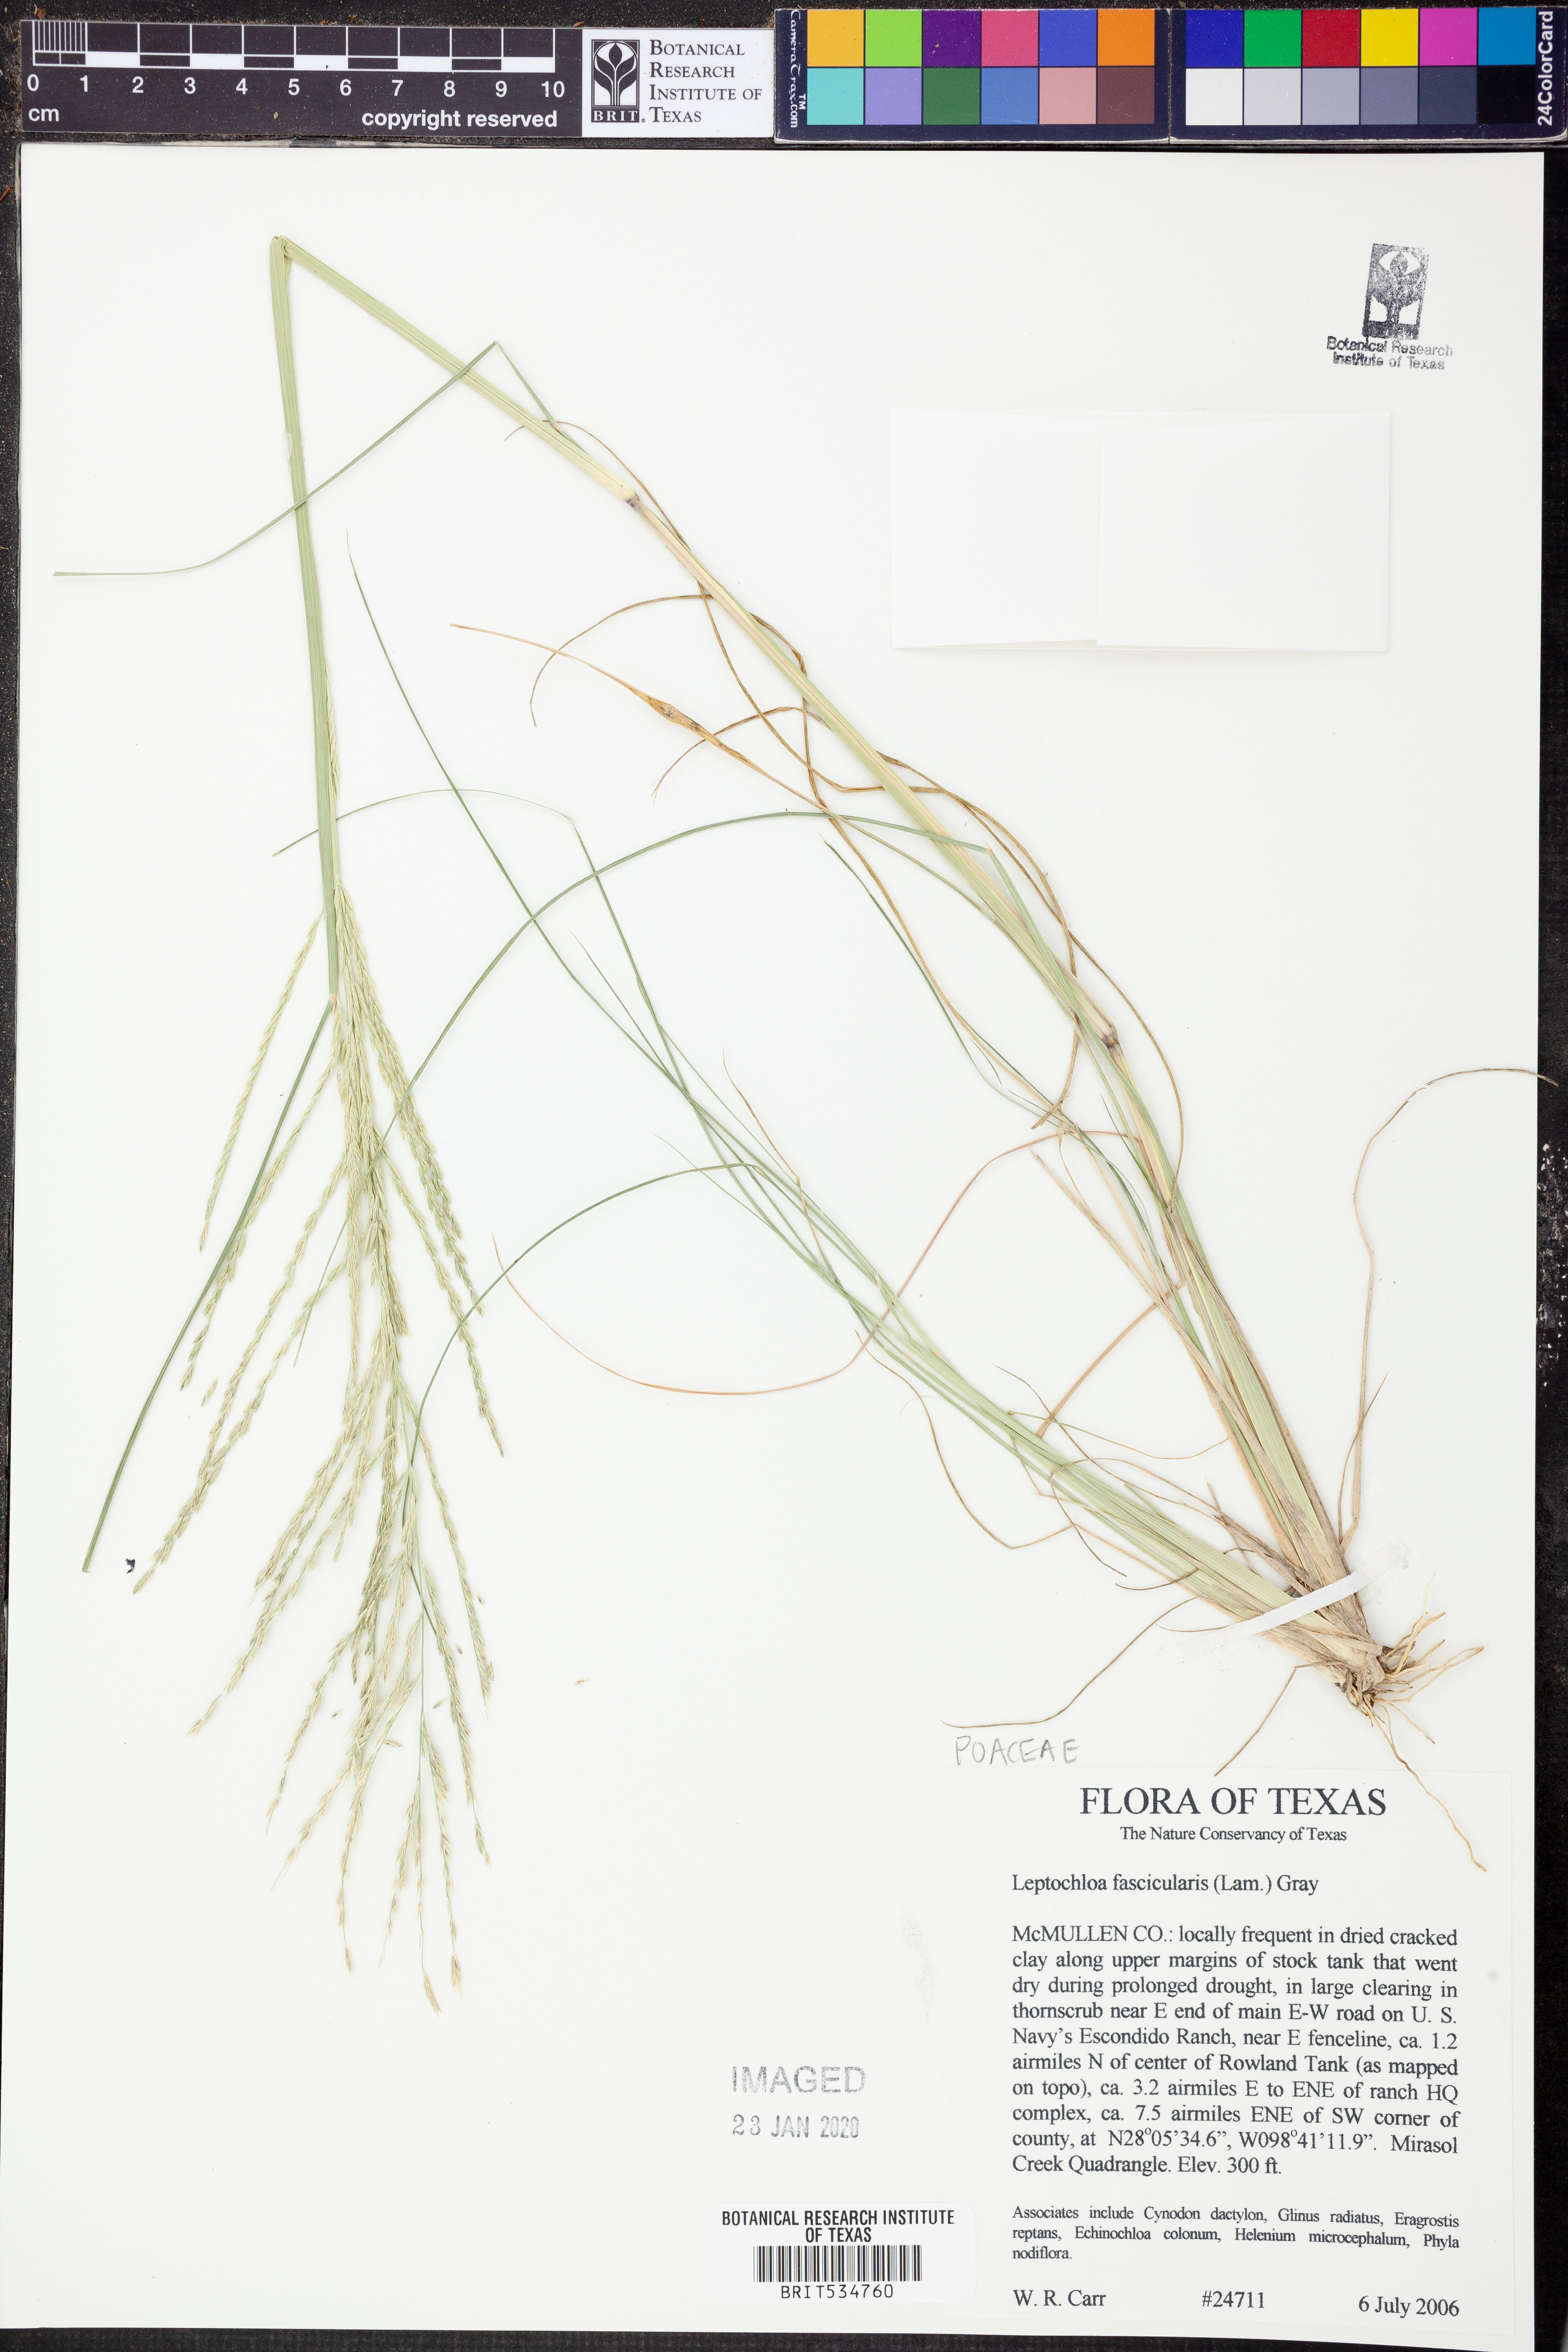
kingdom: Plantae
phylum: Tracheophyta
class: Liliopsida
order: Poales
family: Poaceae
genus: Diplachne
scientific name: Diplachne fusca
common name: Brown beetle grass
